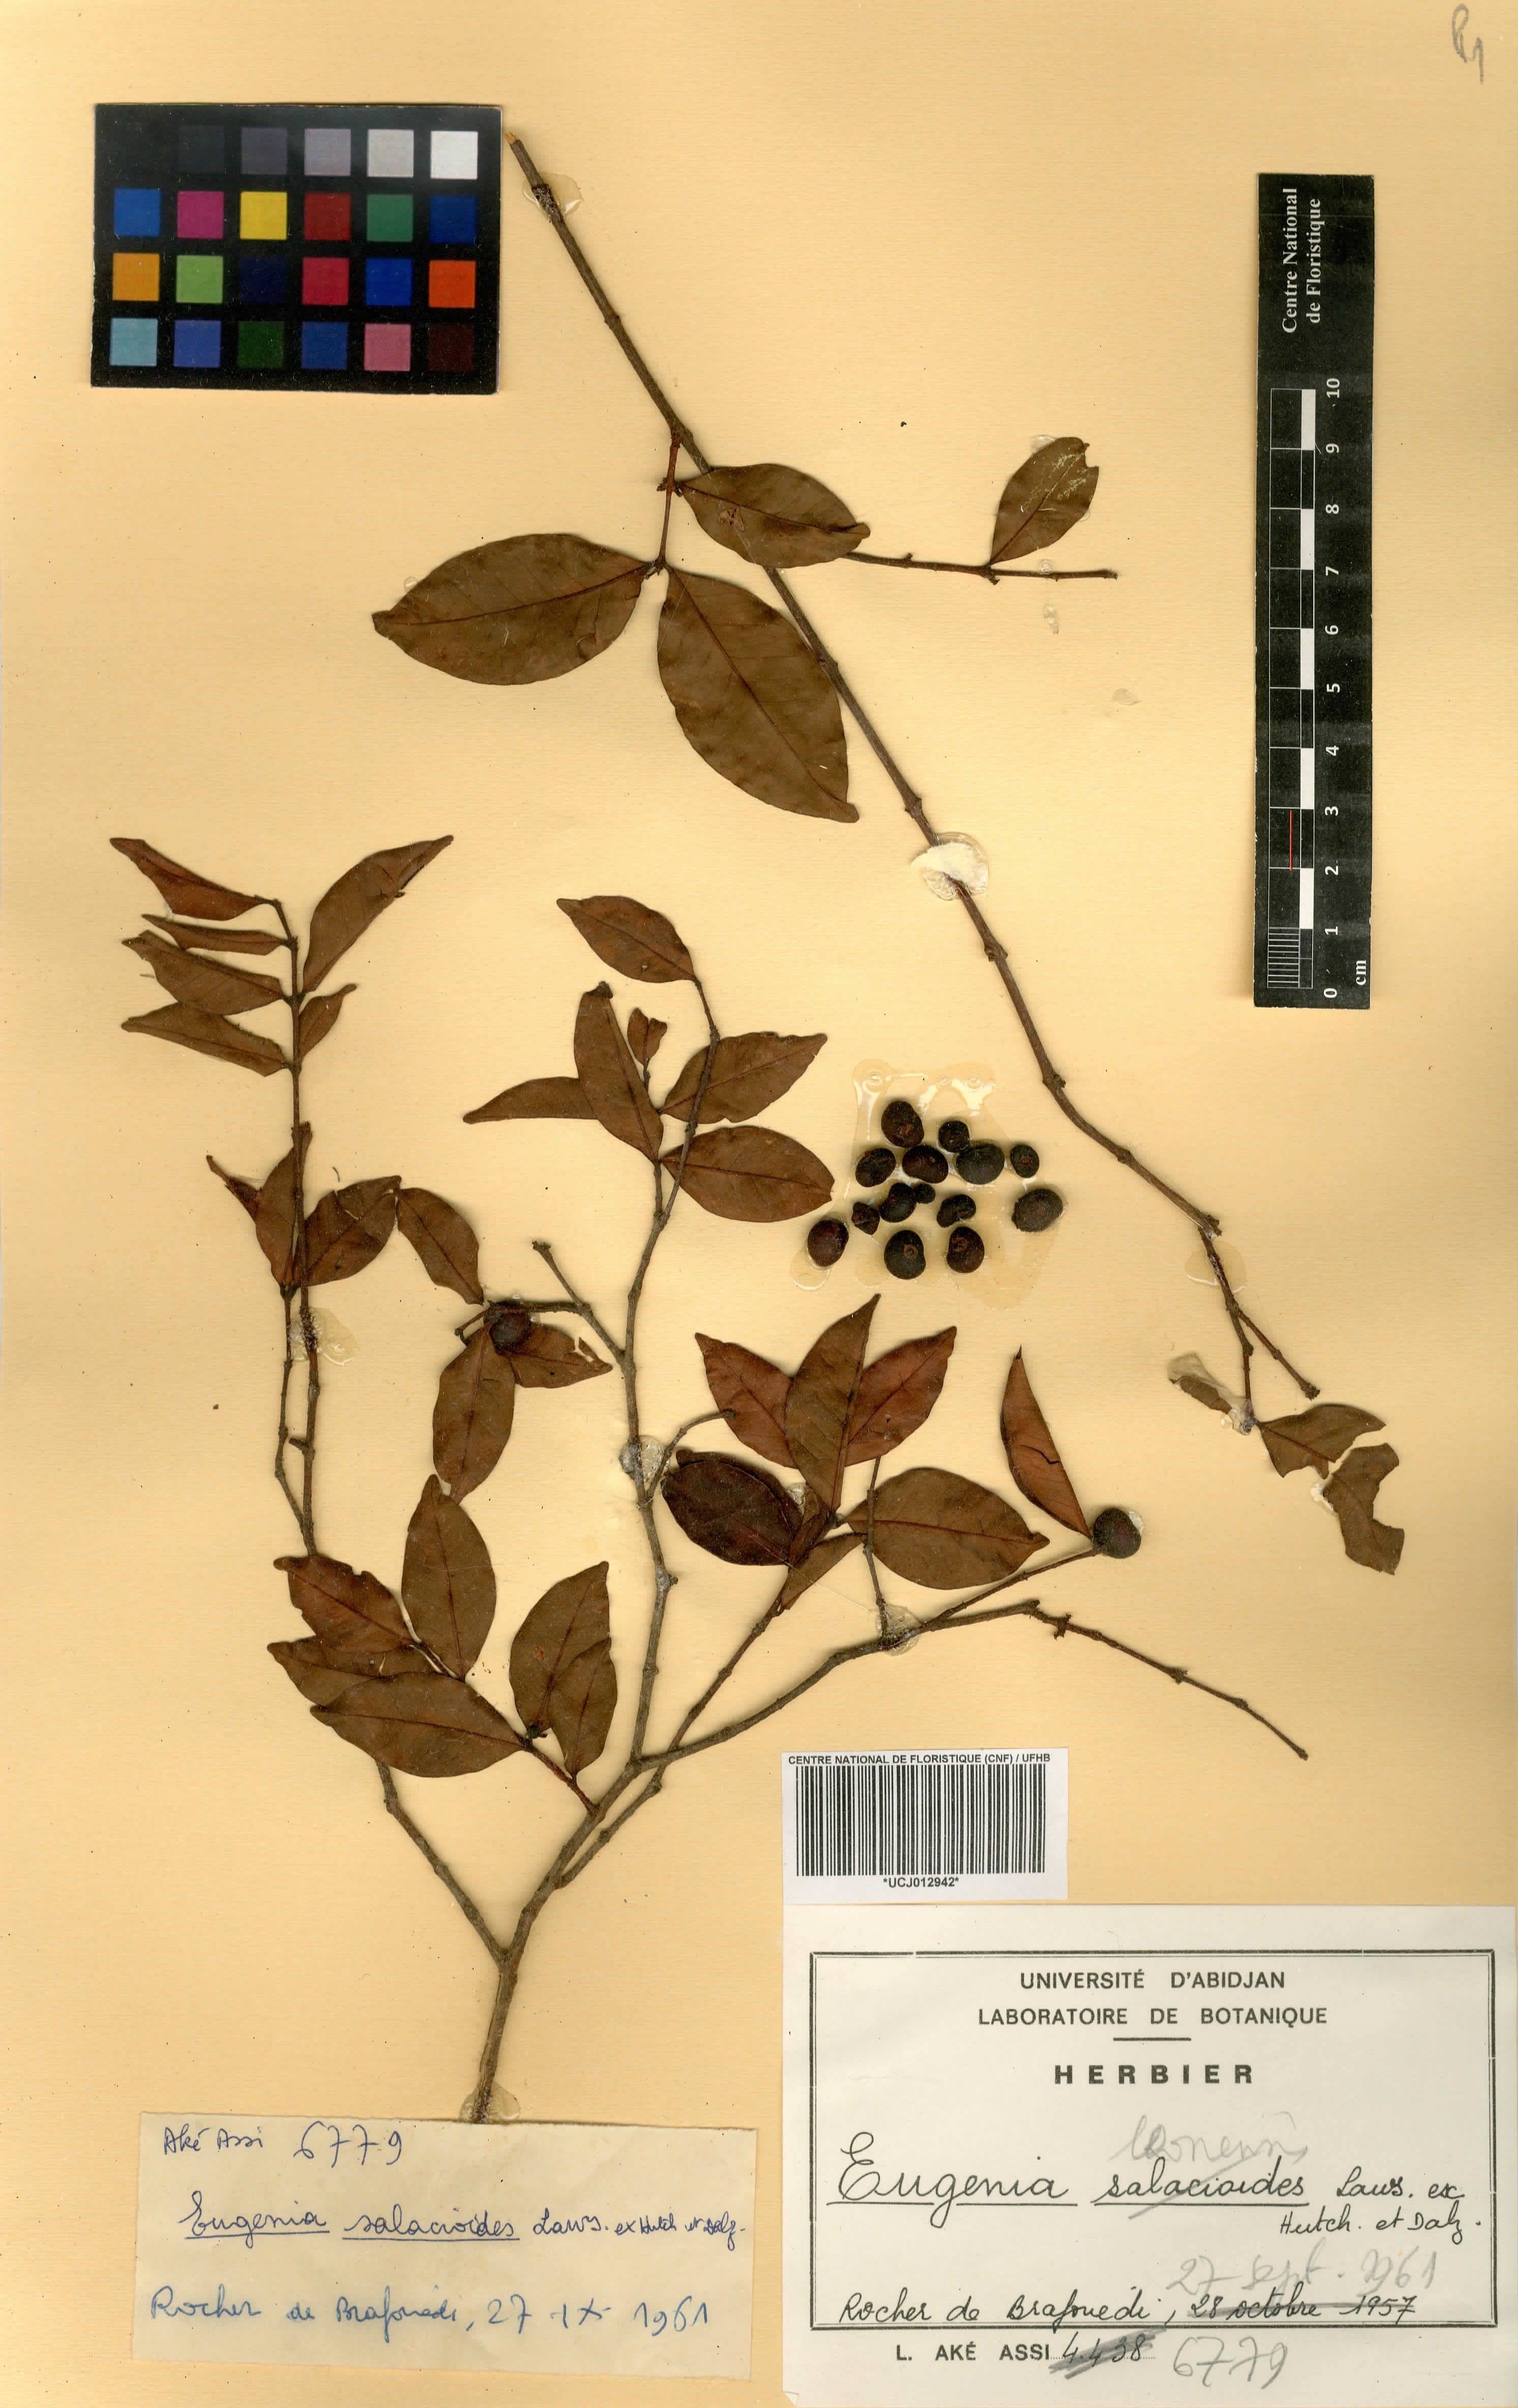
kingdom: Plantae
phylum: Tracheophyta
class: Magnoliopsida
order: Myrtales
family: Myrtaceae
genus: Eugenia
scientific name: Eugenia leonensis
